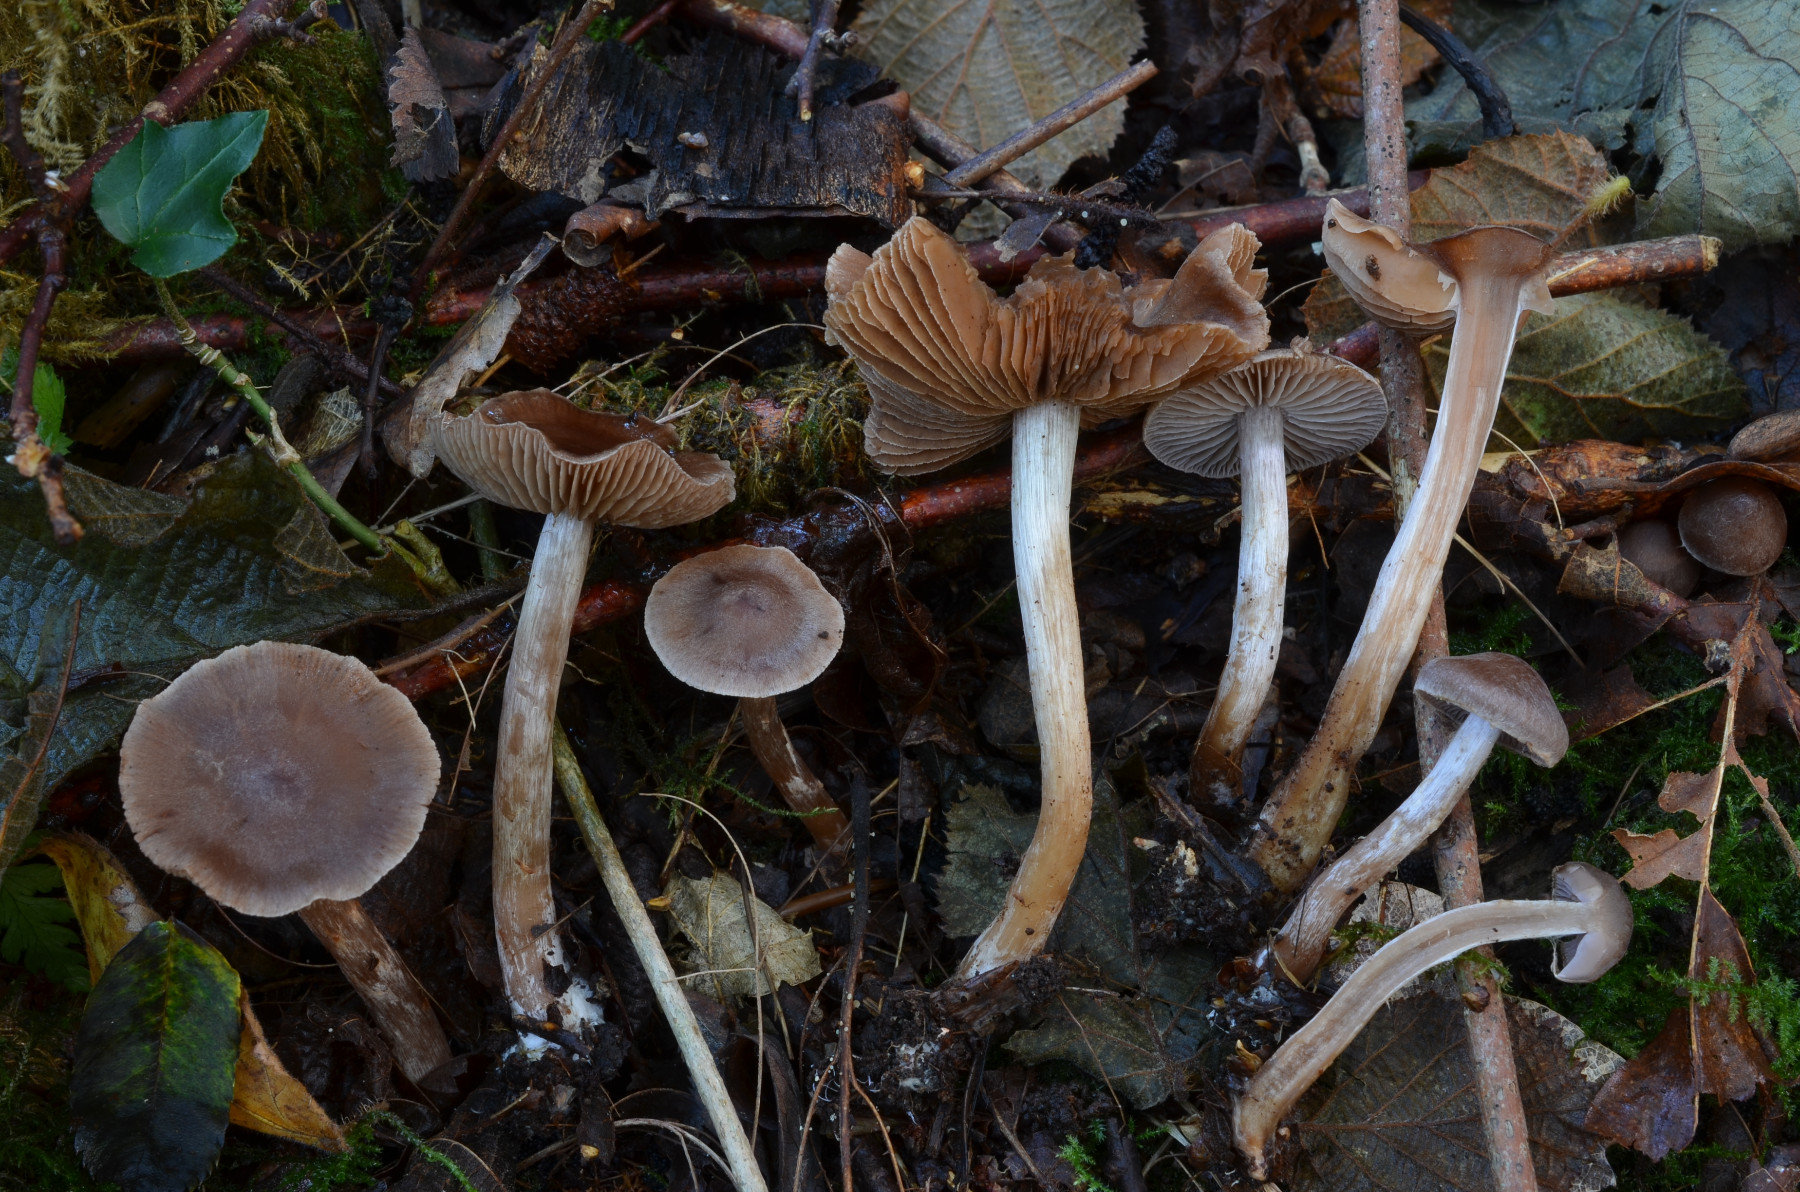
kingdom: Fungi
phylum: Basidiomycota
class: Agaricomycetes
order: Agaricales
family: Cortinariaceae
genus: Cortinarius
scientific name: Cortinarius praestigiosus
